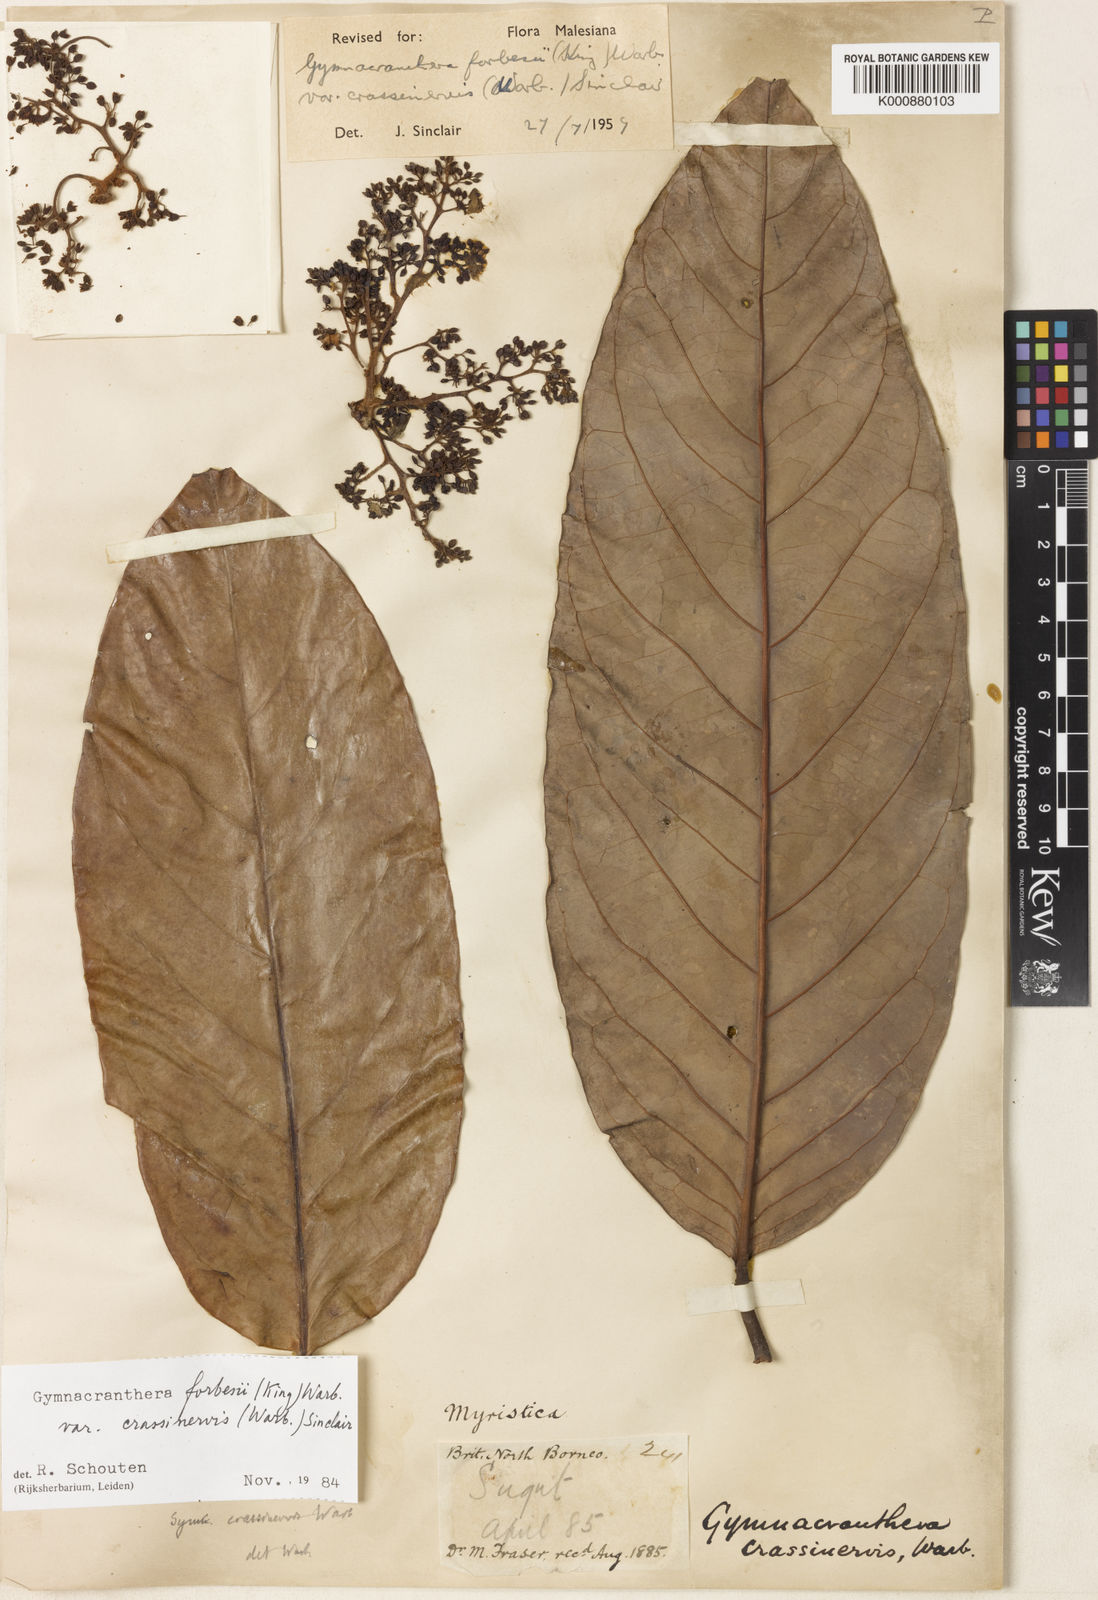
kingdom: Plantae
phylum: Tracheophyta
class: Magnoliopsida
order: Magnoliales
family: Myristicaceae
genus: Gymnacranthera
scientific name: Gymnacranthera forbesii
